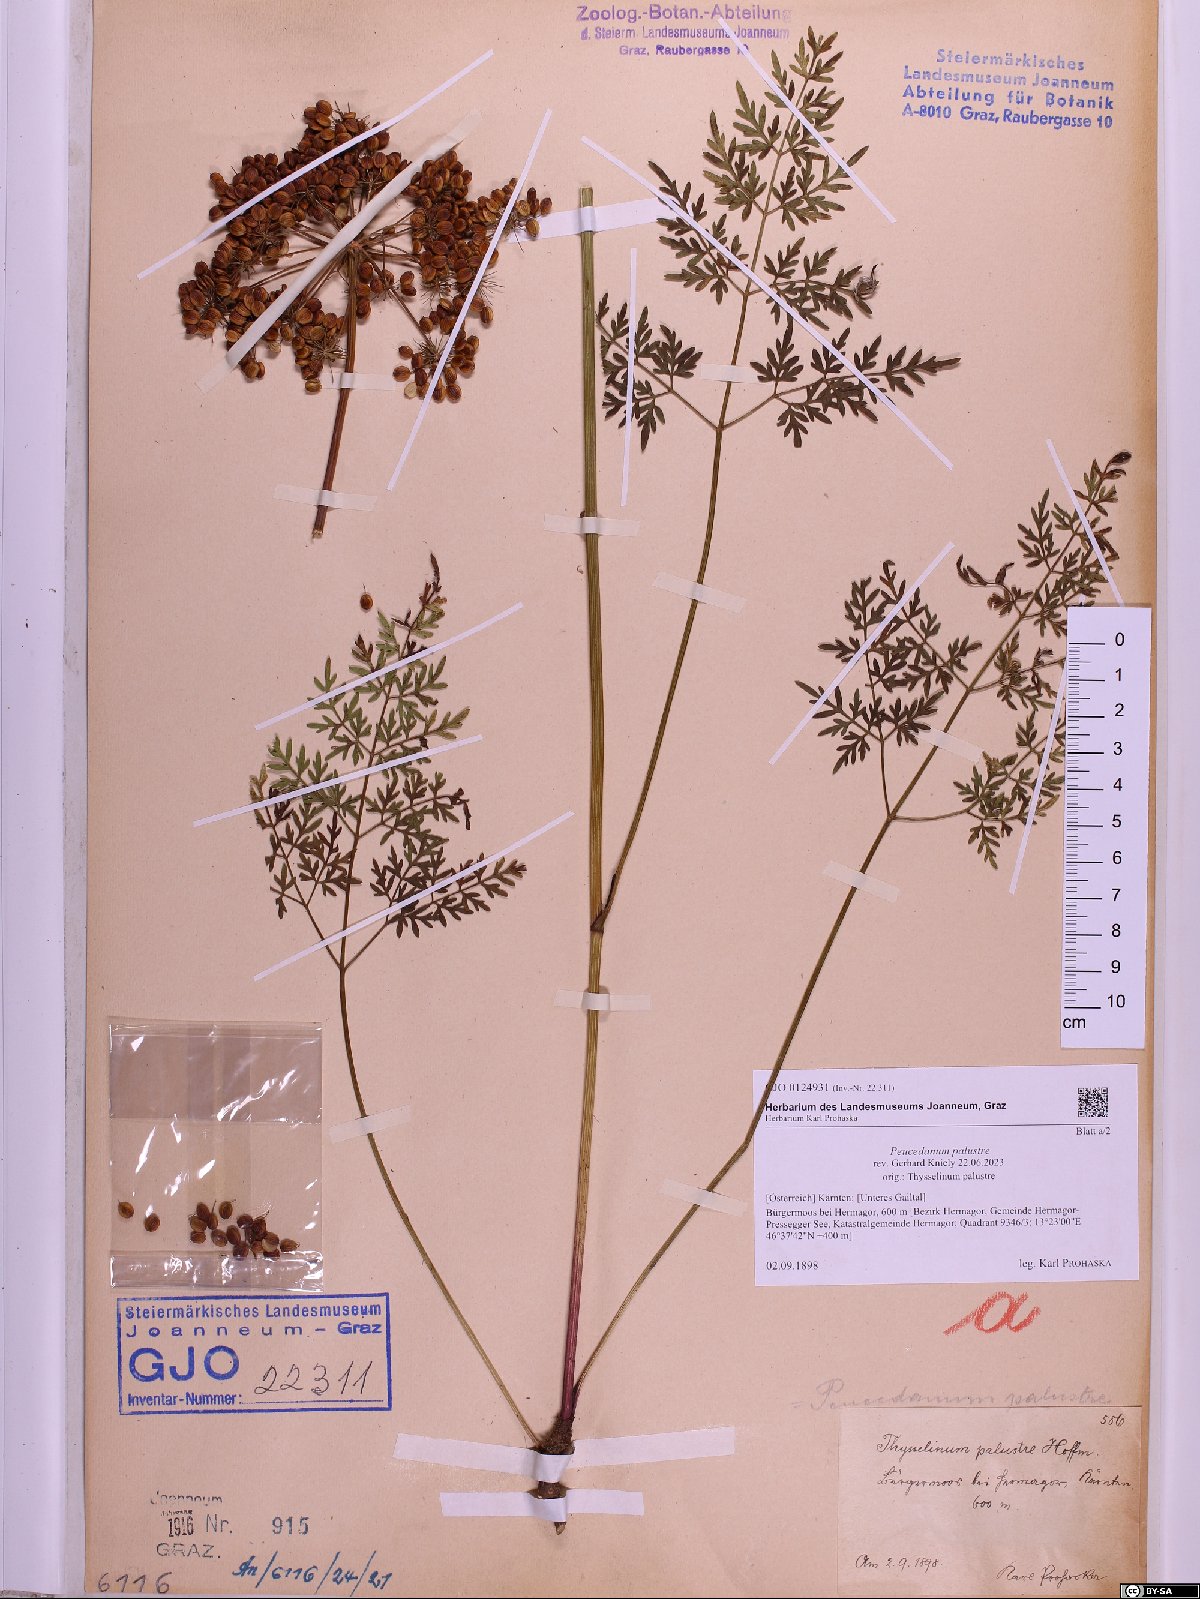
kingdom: Plantae
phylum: Tracheophyta
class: Magnoliopsida
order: Apiales
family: Apiaceae
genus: Thysselinum
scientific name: Thysselinum palustre
